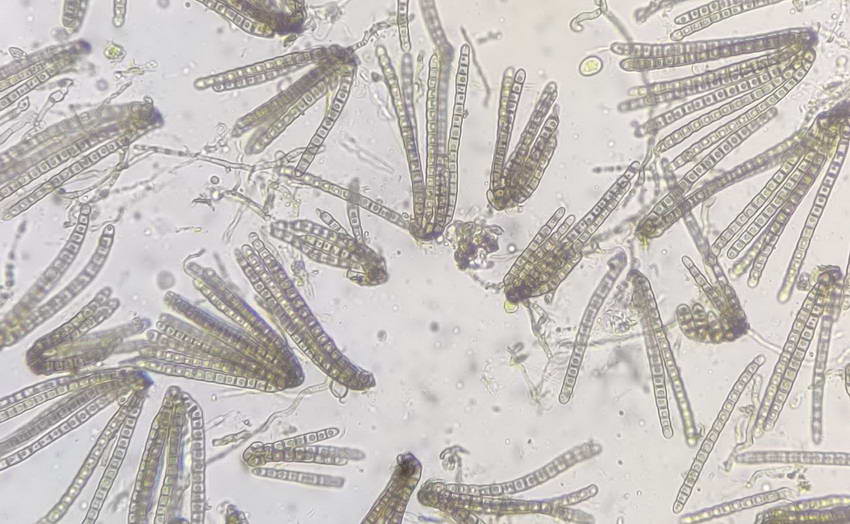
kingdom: Fungi
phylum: Ascomycota
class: Dothideomycetes
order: Pleosporales
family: Cryptocoryneaceae
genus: Cryptocoryneum
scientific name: Cryptocoryneum condensatum
